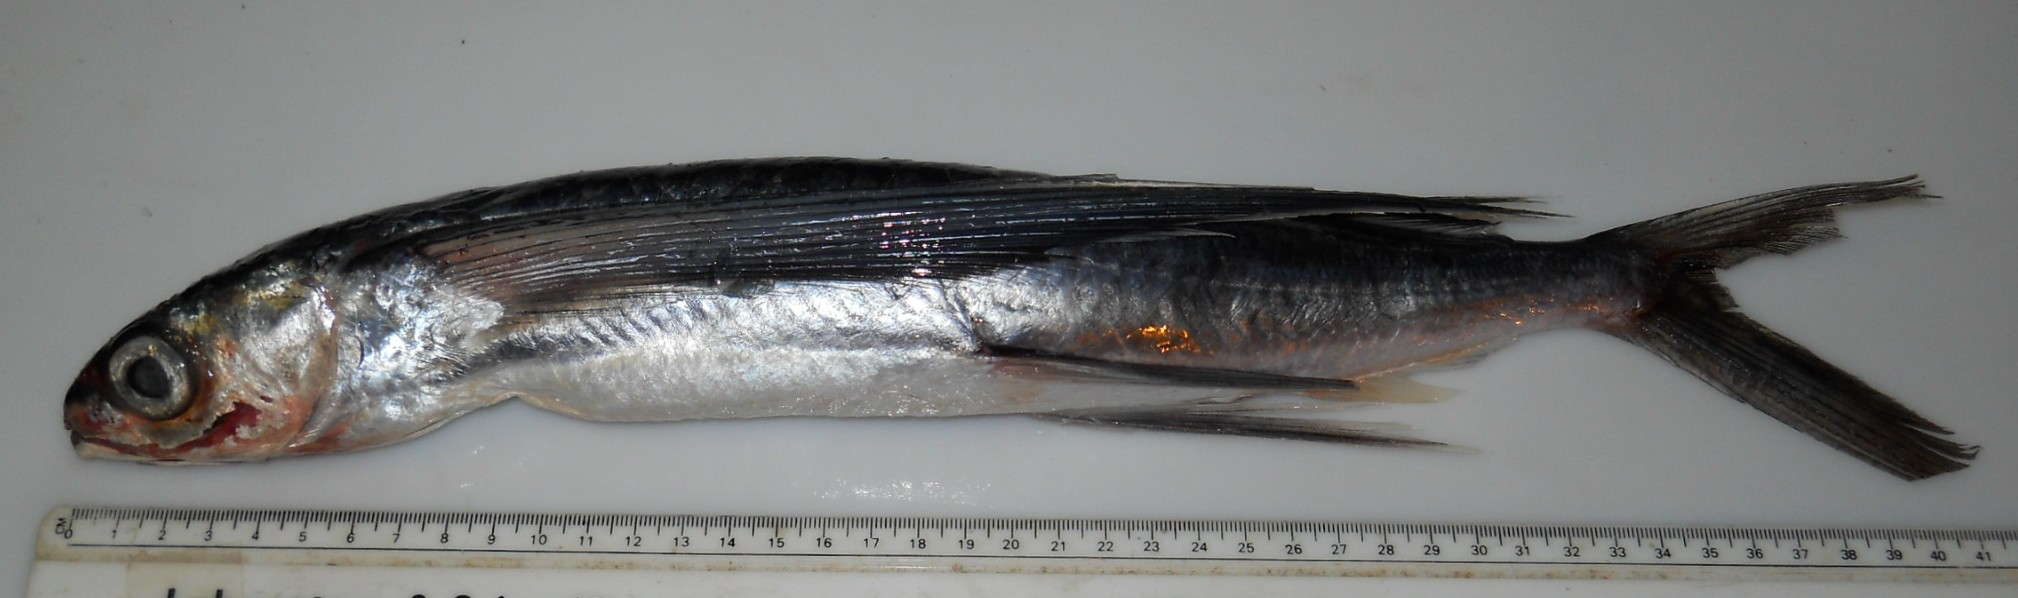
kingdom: Animalia
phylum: Chordata
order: Beloniformes
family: Exocoetidae
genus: Cheilopogon
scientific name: Cheilopogon altipennis
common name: Smallhead flyingfish
